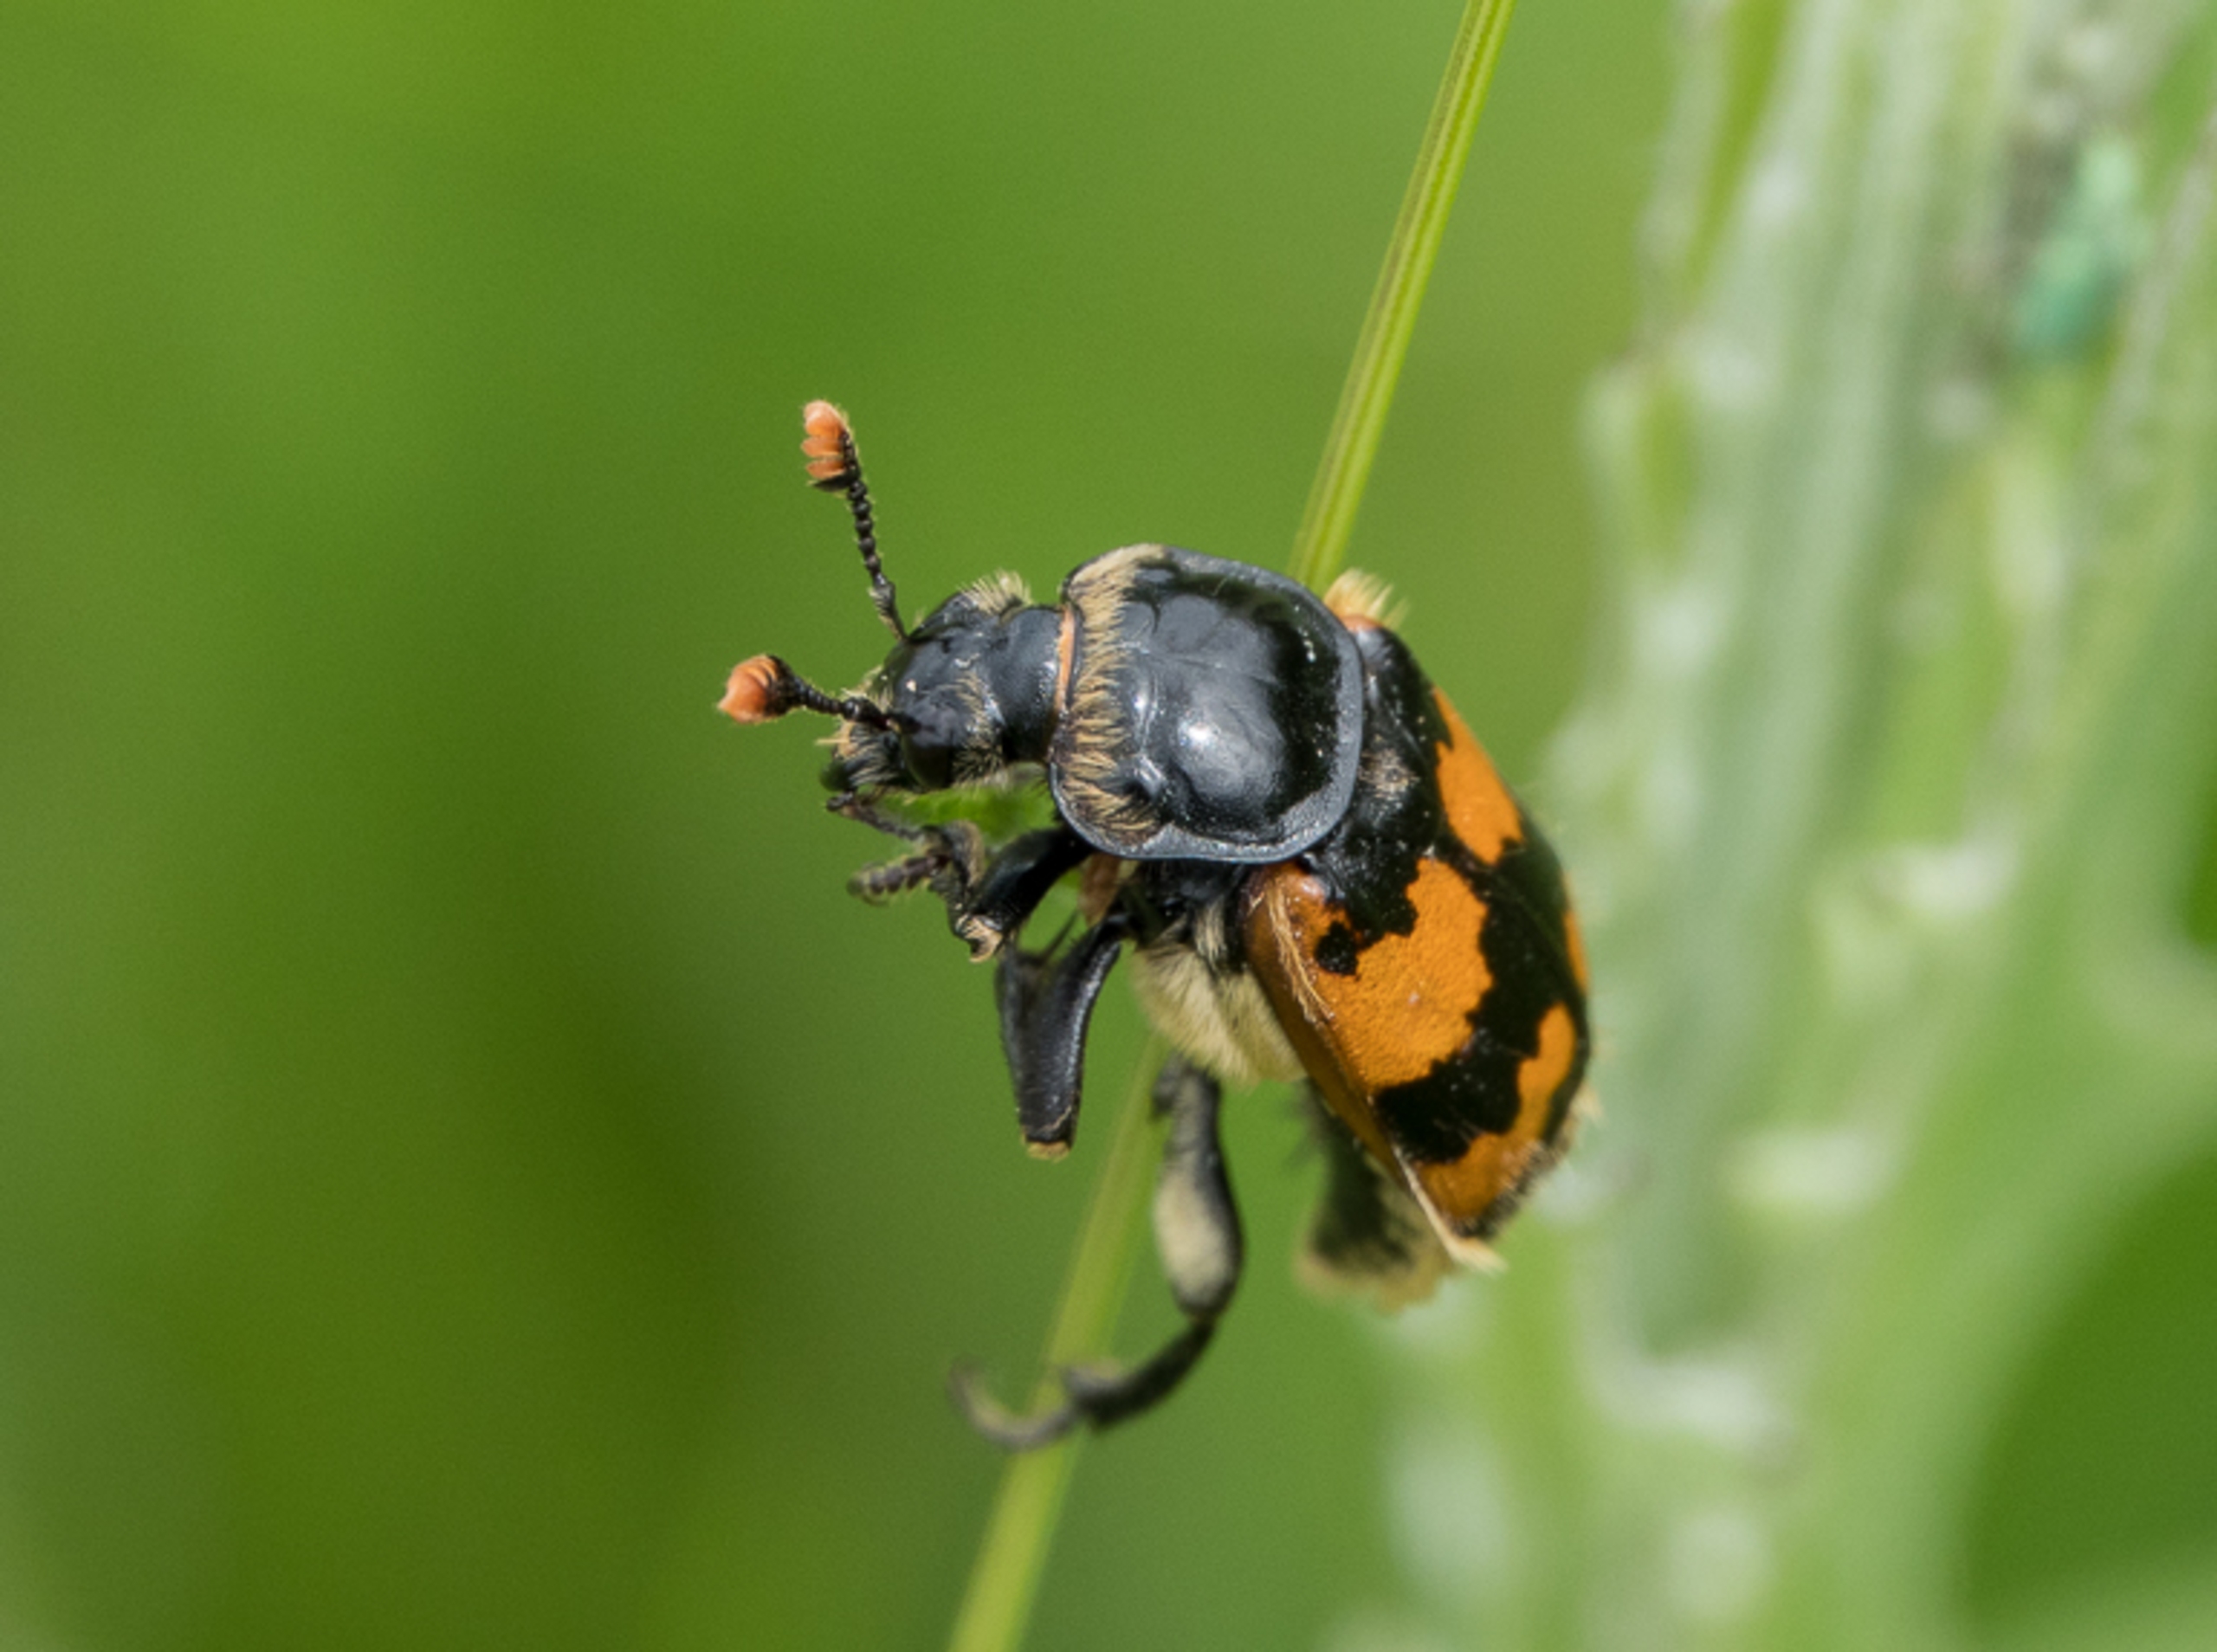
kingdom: Animalia
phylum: Arthropoda
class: Insecta
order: Coleoptera
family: Staphylinidae
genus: Nicrophorus
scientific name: Nicrophorus vespillo
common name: Krumbenet ådselgraver
